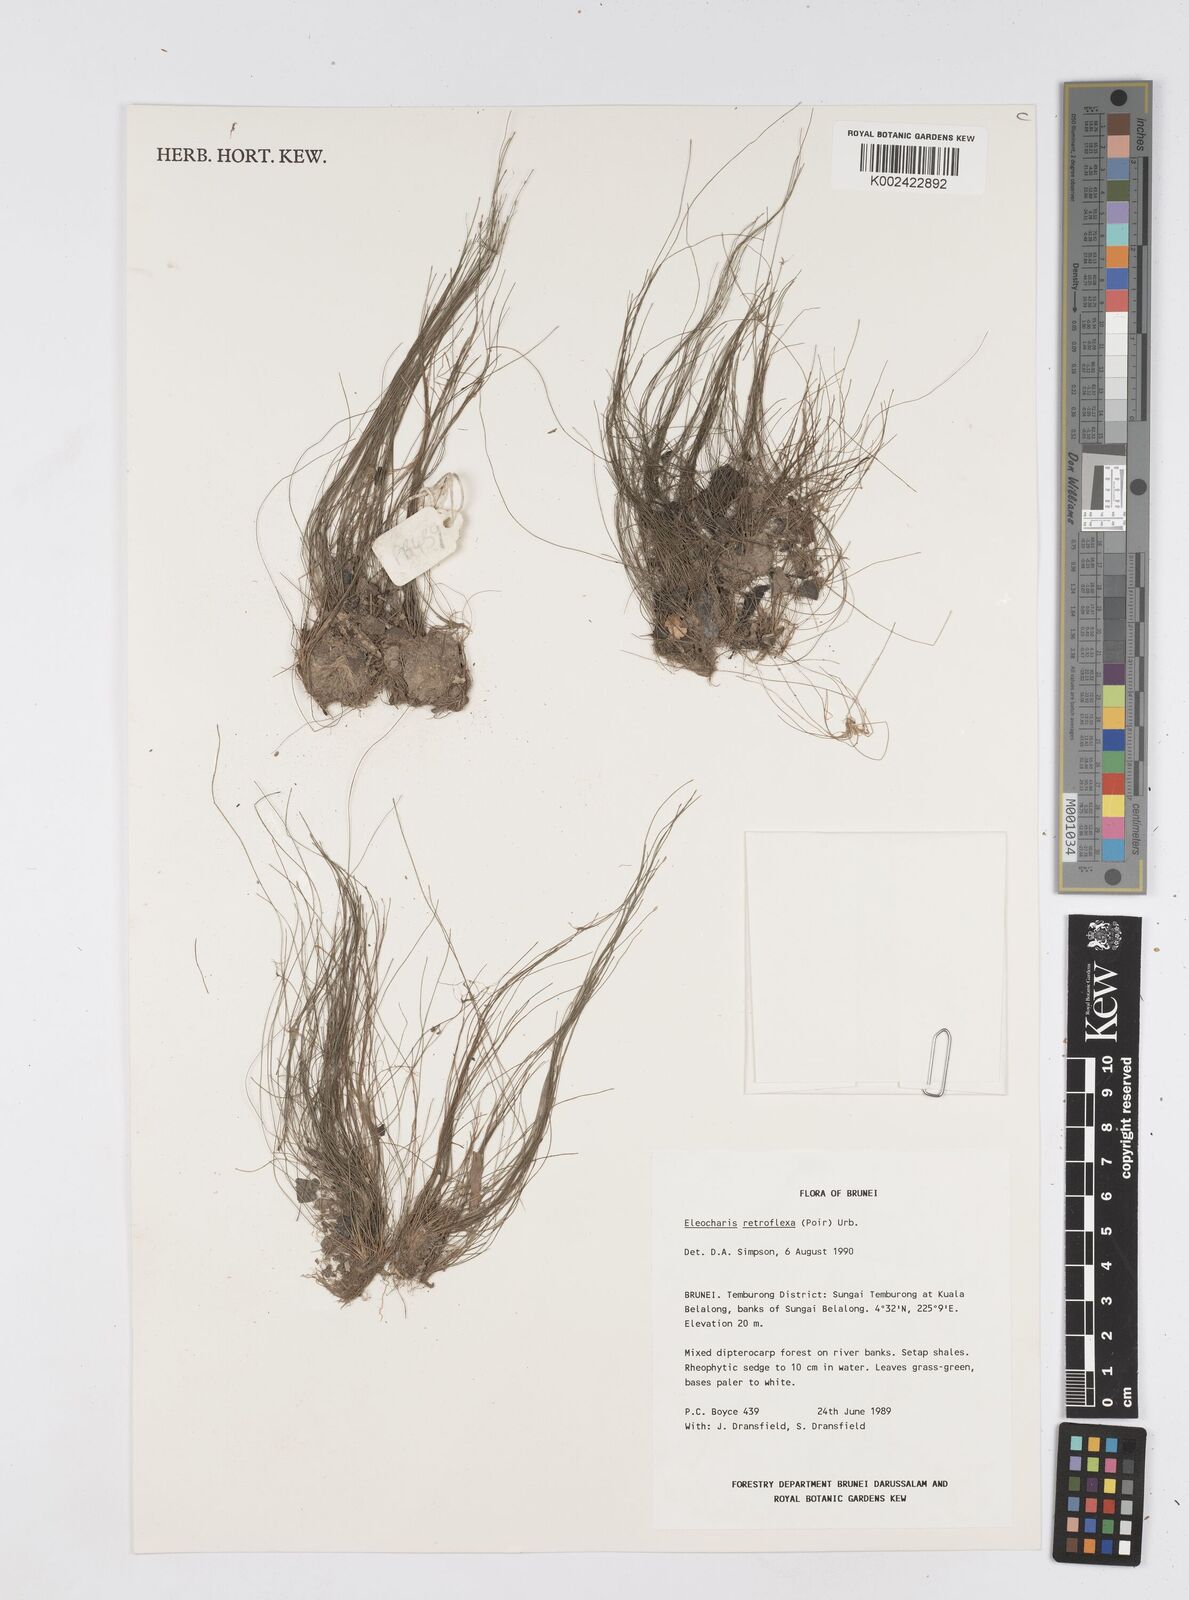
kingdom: Plantae
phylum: Tracheophyta
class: Liliopsida
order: Poales
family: Cyperaceae
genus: Eleocharis
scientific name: Eleocharis retroflexa
